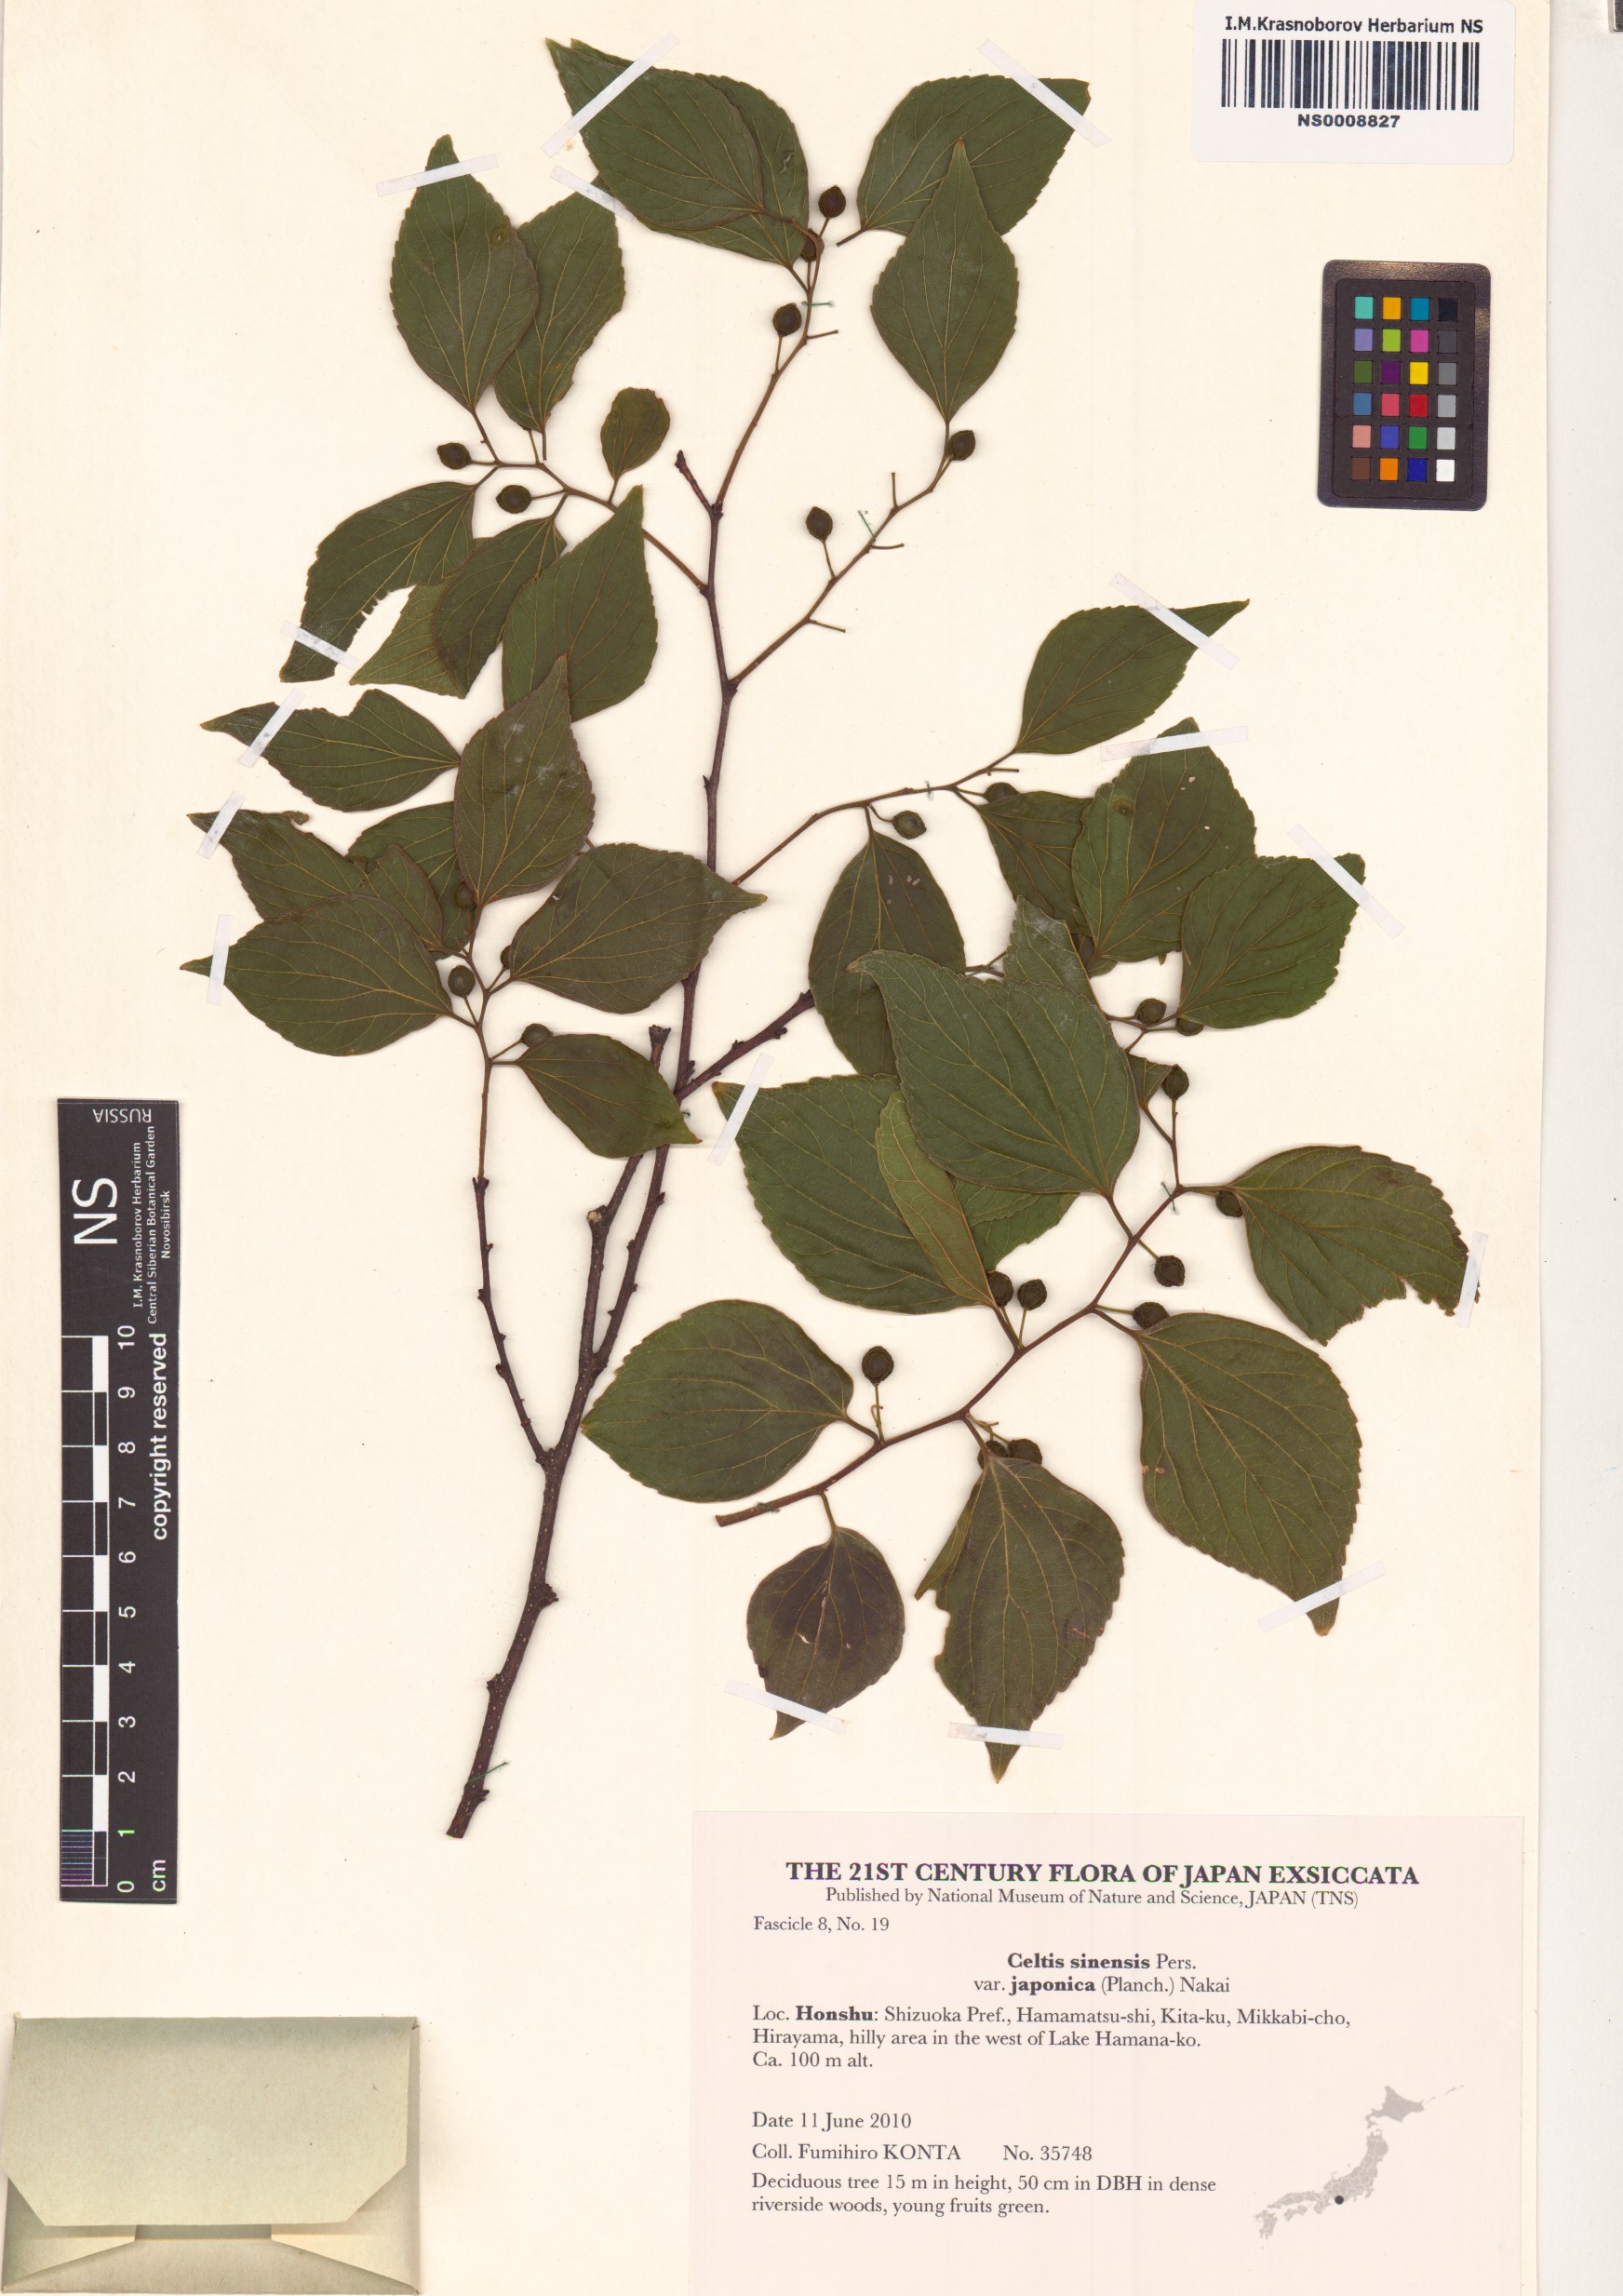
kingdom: Plantae
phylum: Tracheophyta
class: Magnoliopsida
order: Rosales
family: Cannabaceae
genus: Celtis
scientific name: Celtis sinensis
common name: Chinese hackberry
